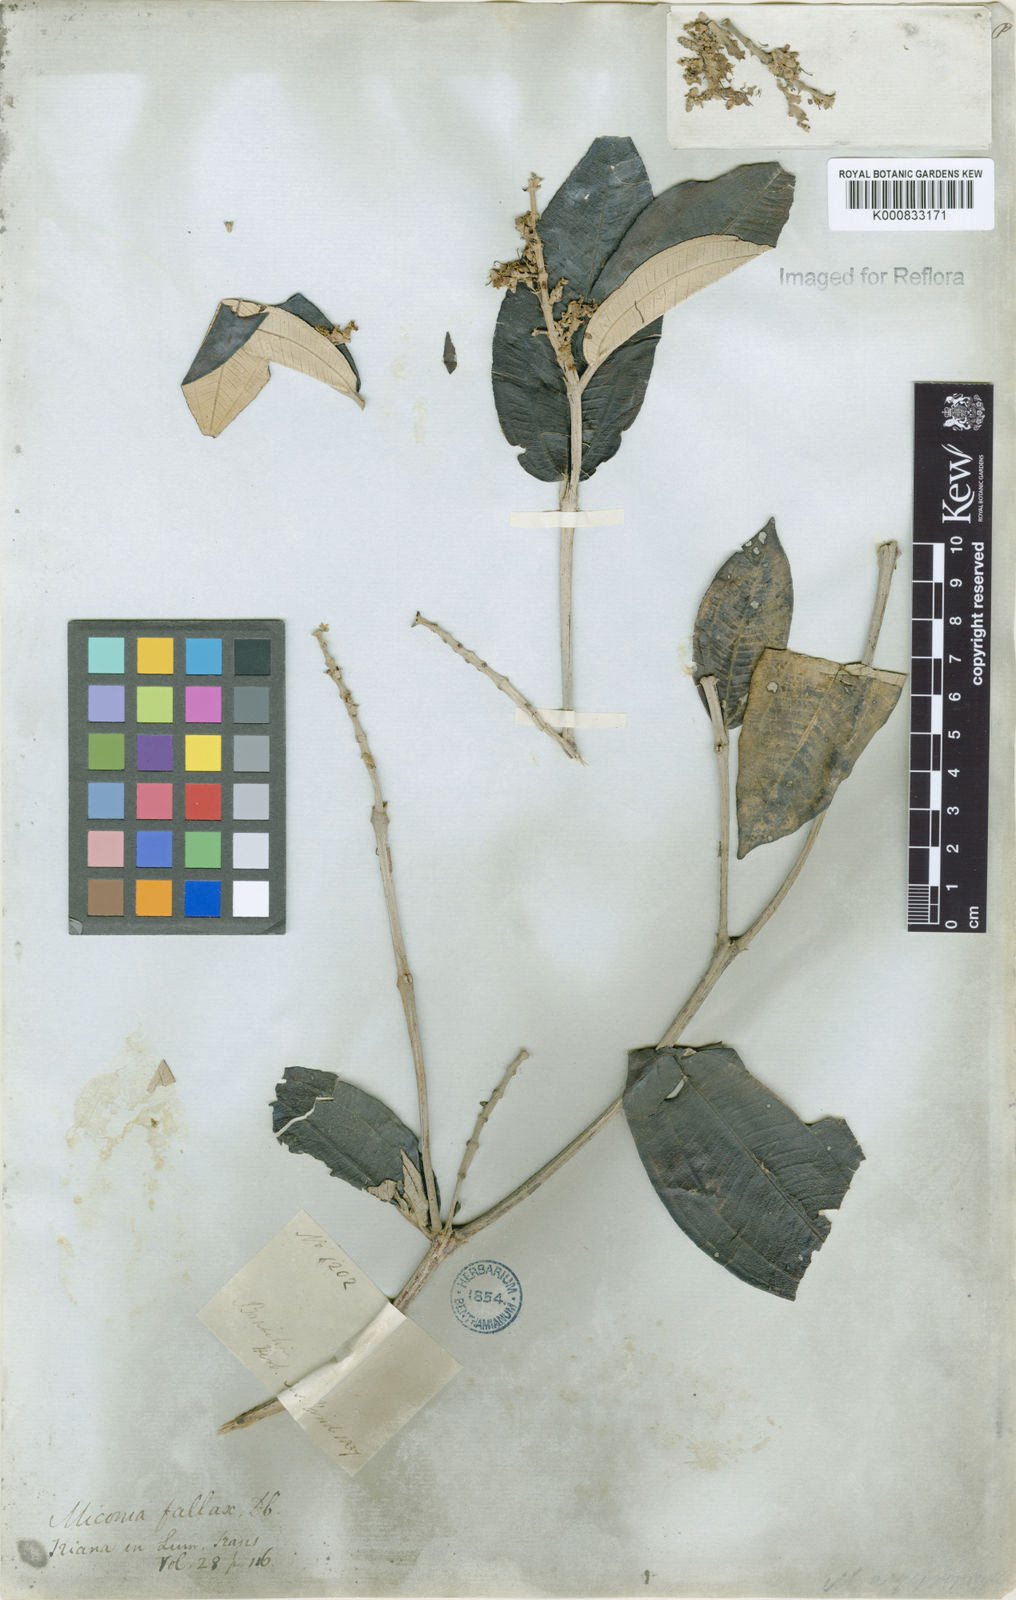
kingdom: Plantae
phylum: Tracheophyta
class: Magnoliopsida
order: Myrtales
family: Melastomataceae
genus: Miconia
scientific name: Miconia fallax
